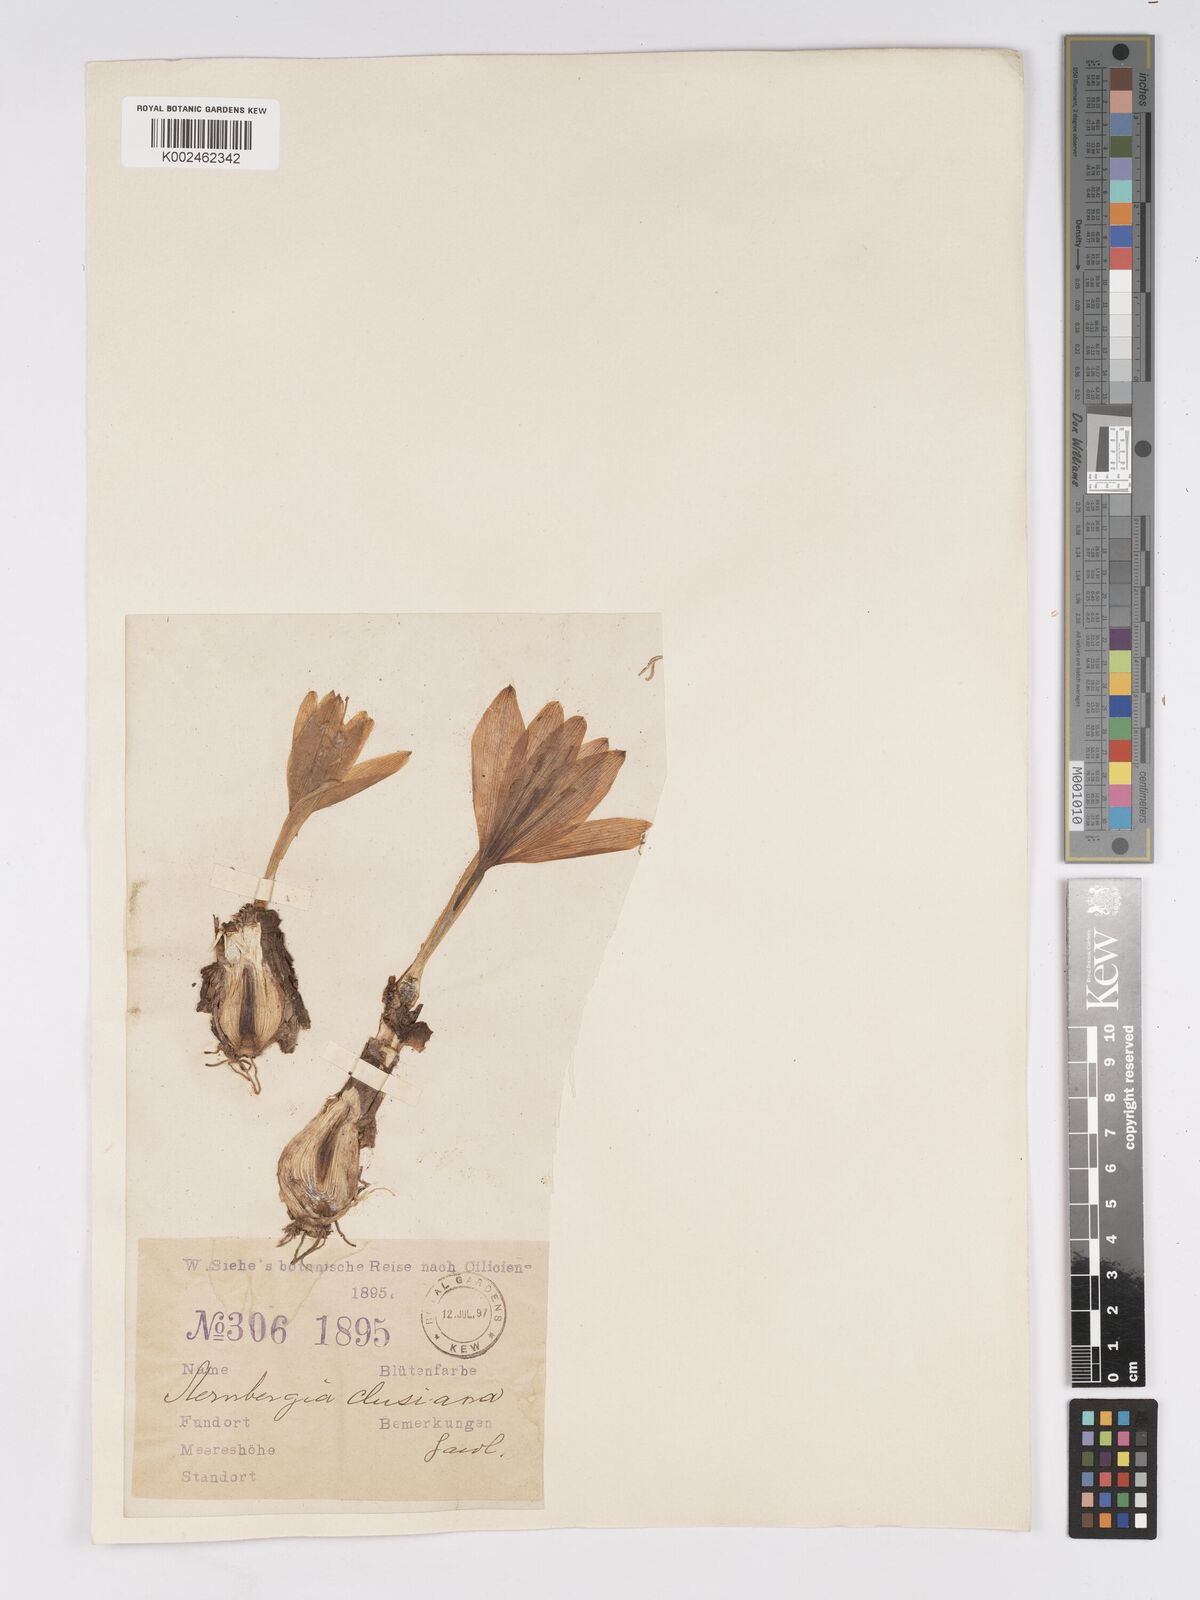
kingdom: Plantae
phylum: Tracheophyta
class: Liliopsida
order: Asparagales
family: Amaryllidaceae
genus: Sternbergia
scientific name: Sternbergia clusiana
